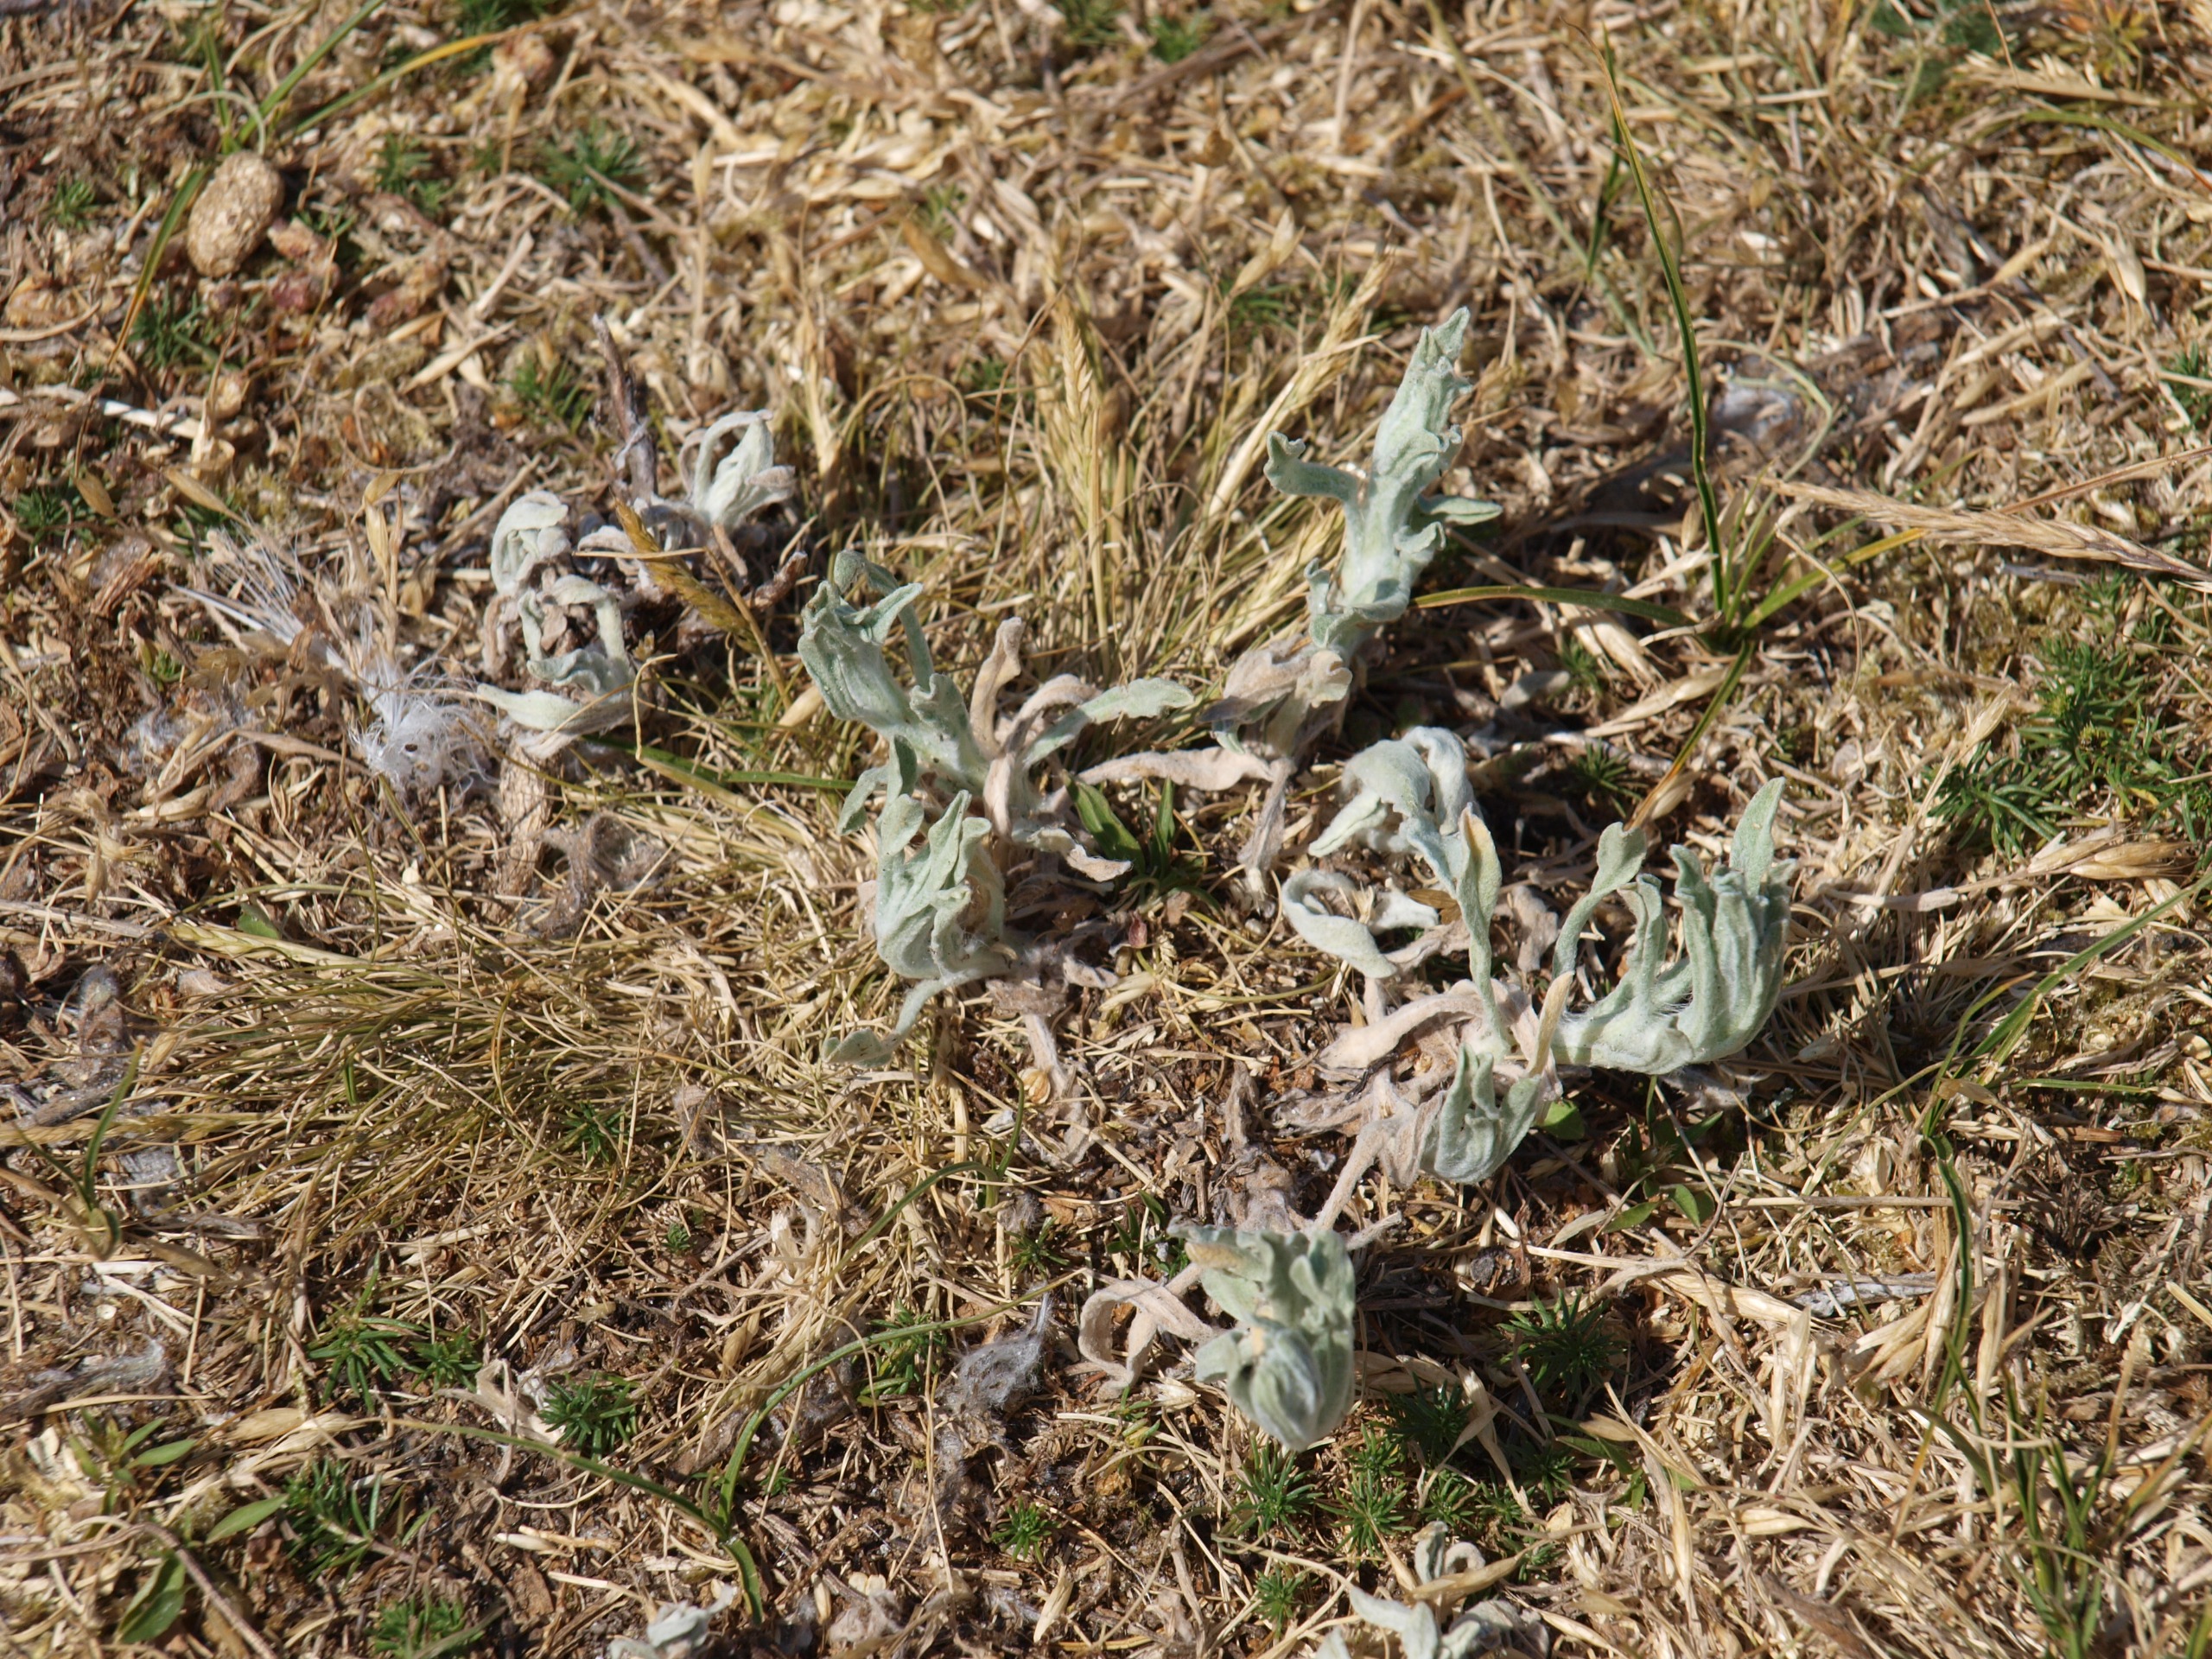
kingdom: Plantae
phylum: Tracheophyta
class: Magnoliopsida
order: Asterales
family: Asteraceae
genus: Helichrysum
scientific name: Helichrysum arenarium
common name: Gul evighedsblomst
